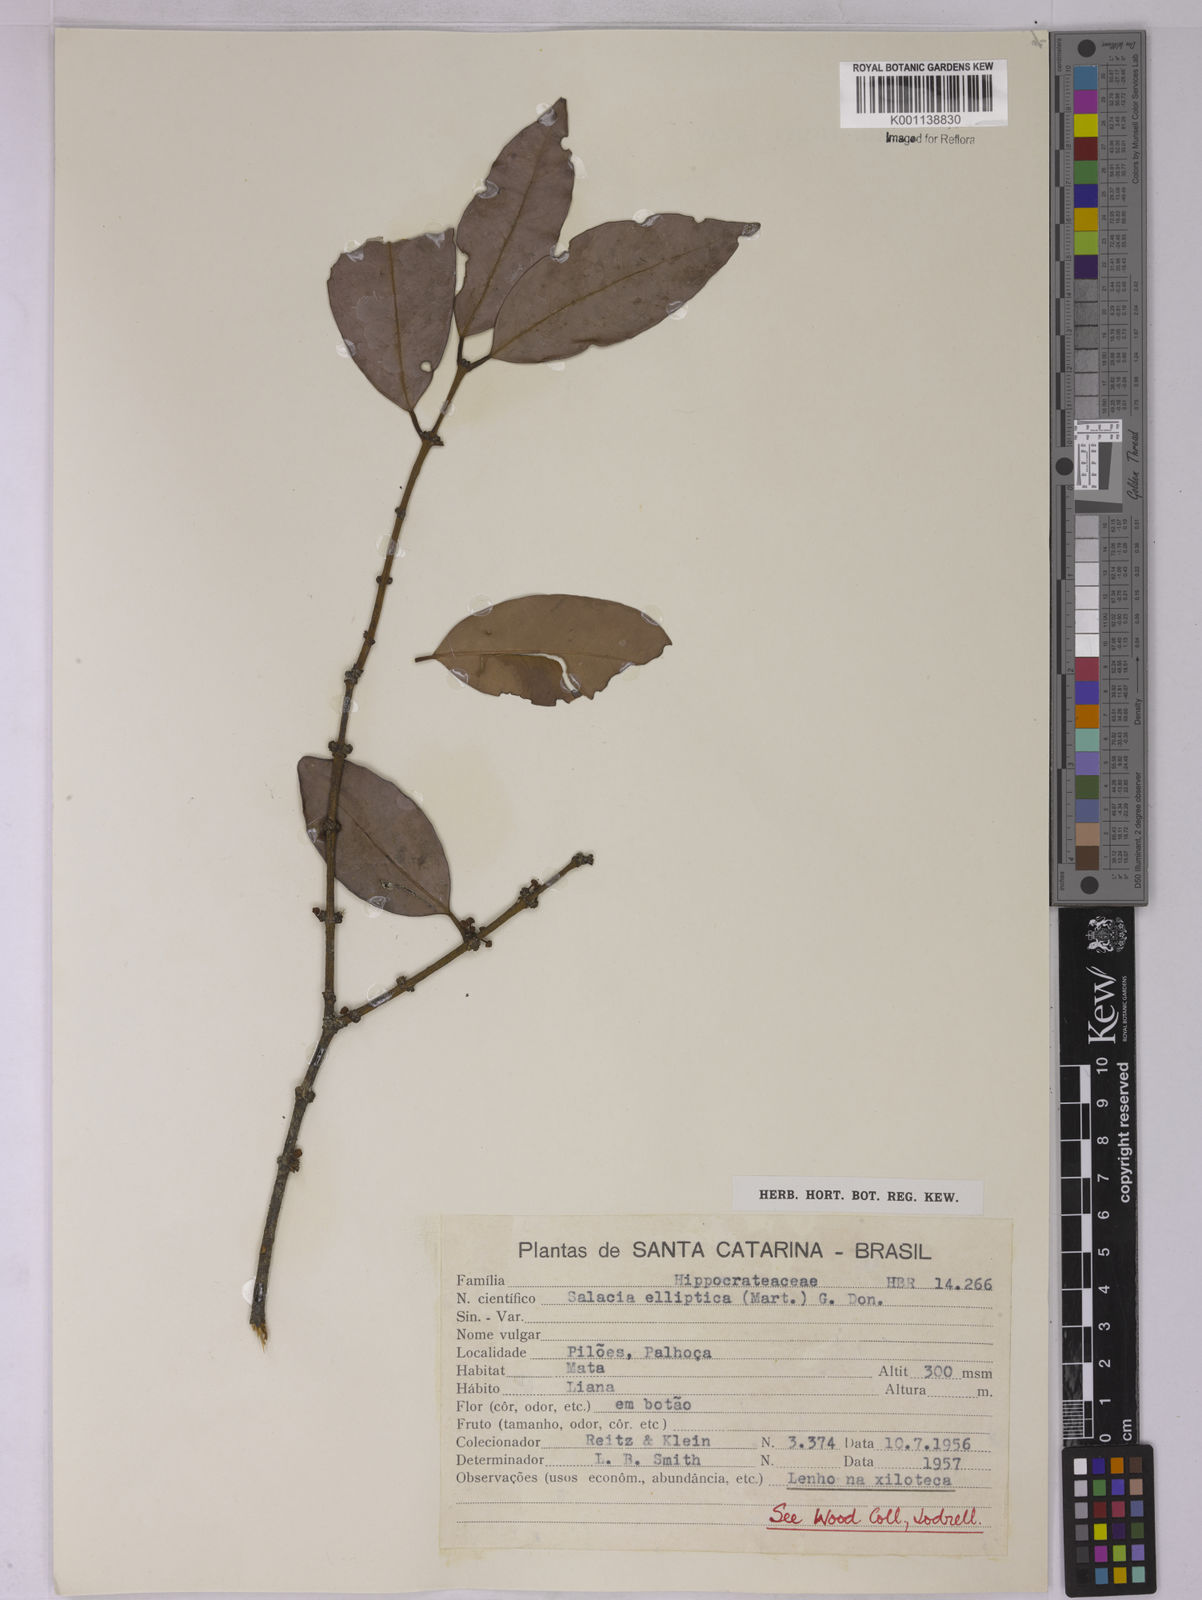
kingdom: Plantae
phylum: Tracheophyta
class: Magnoliopsida
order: Celastrales
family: Celastraceae
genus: Salacia
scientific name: Salacia elliptica
